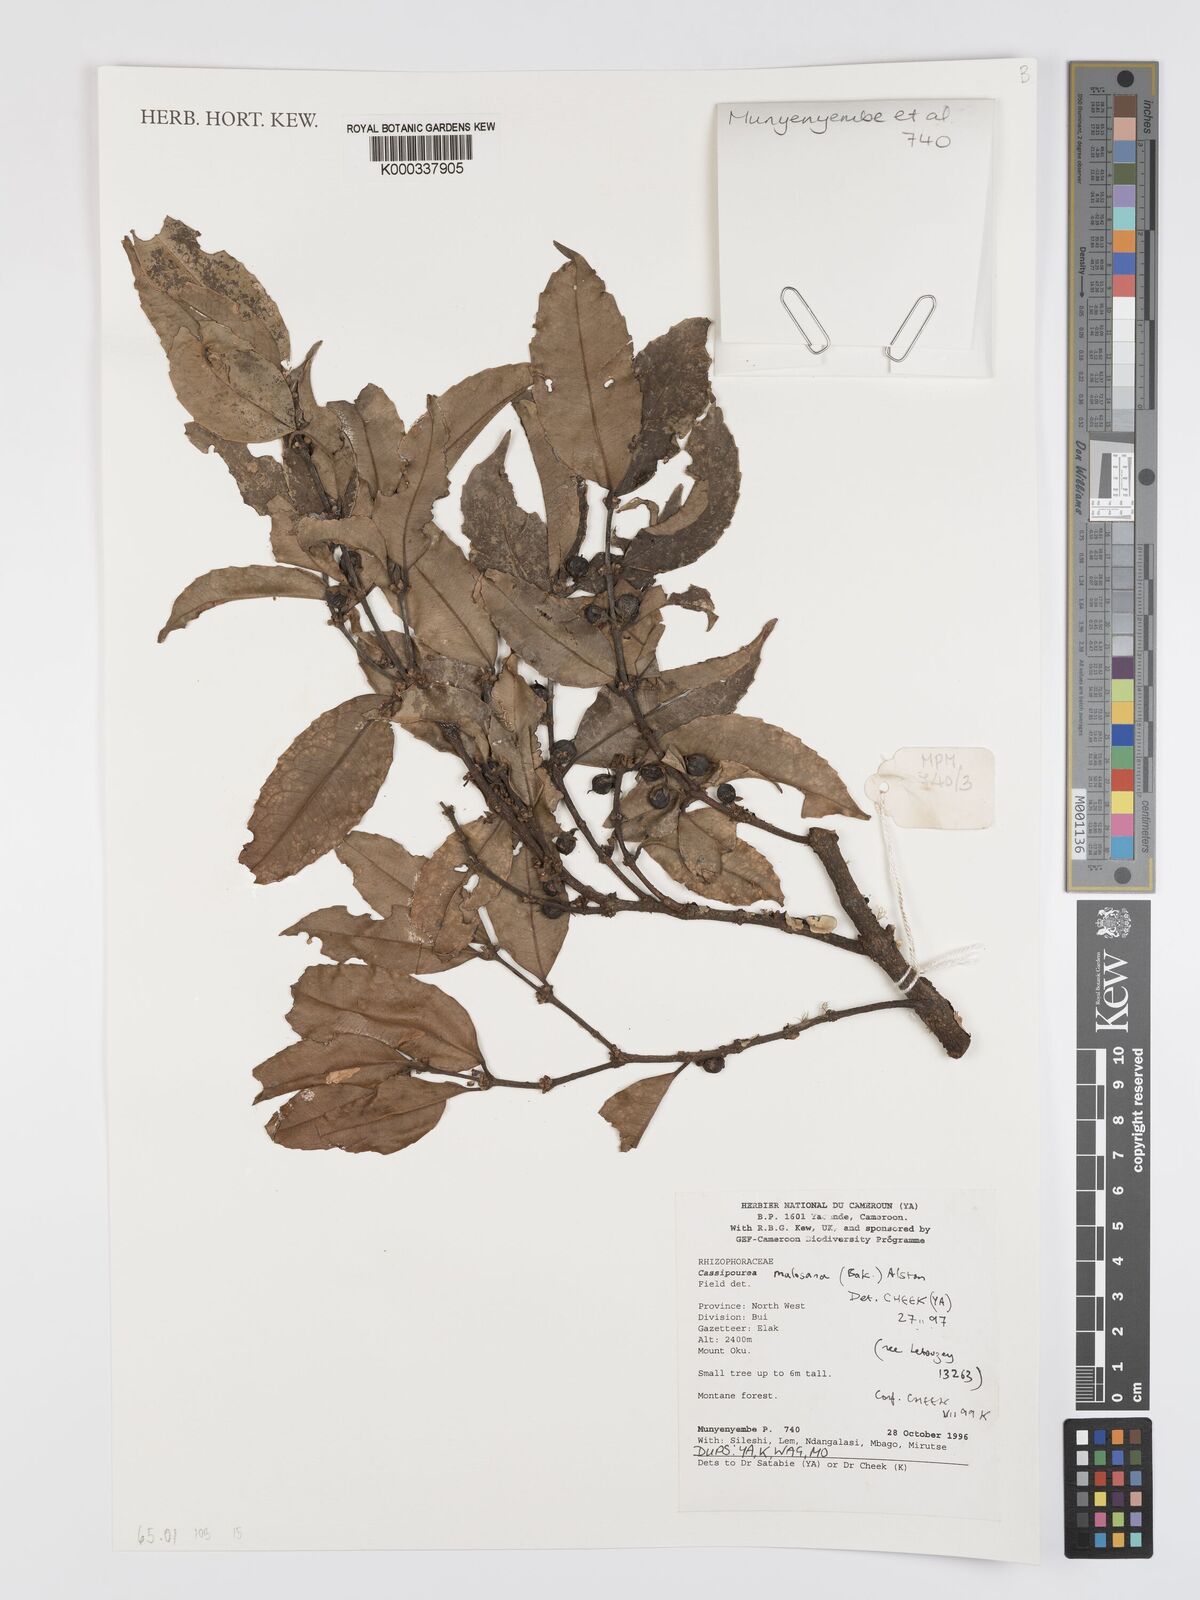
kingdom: Plantae
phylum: Tracheophyta
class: Magnoliopsida
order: Malpighiales
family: Rhizophoraceae
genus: Cassipourea
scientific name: Cassipourea malosana
